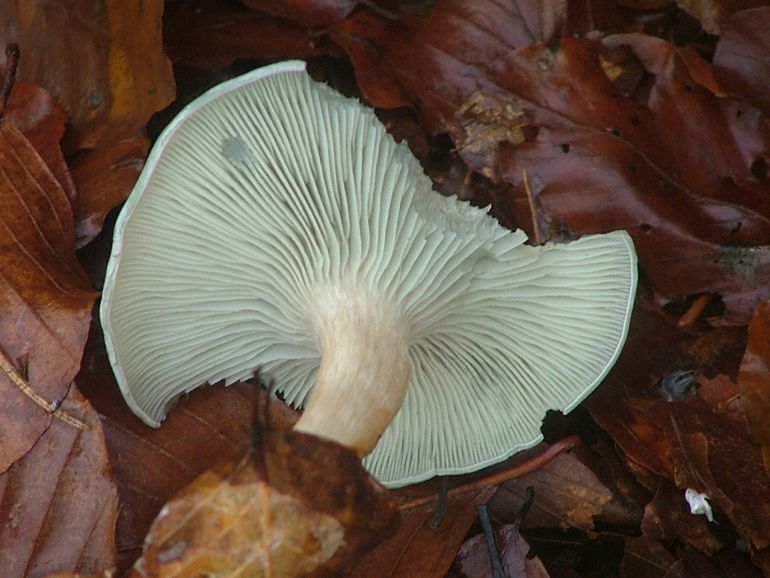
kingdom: Fungi
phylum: Basidiomycota
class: Agaricomycetes
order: Agaricales
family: Tricholomataceae
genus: Clitocybe
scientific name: Clitocybe odora
